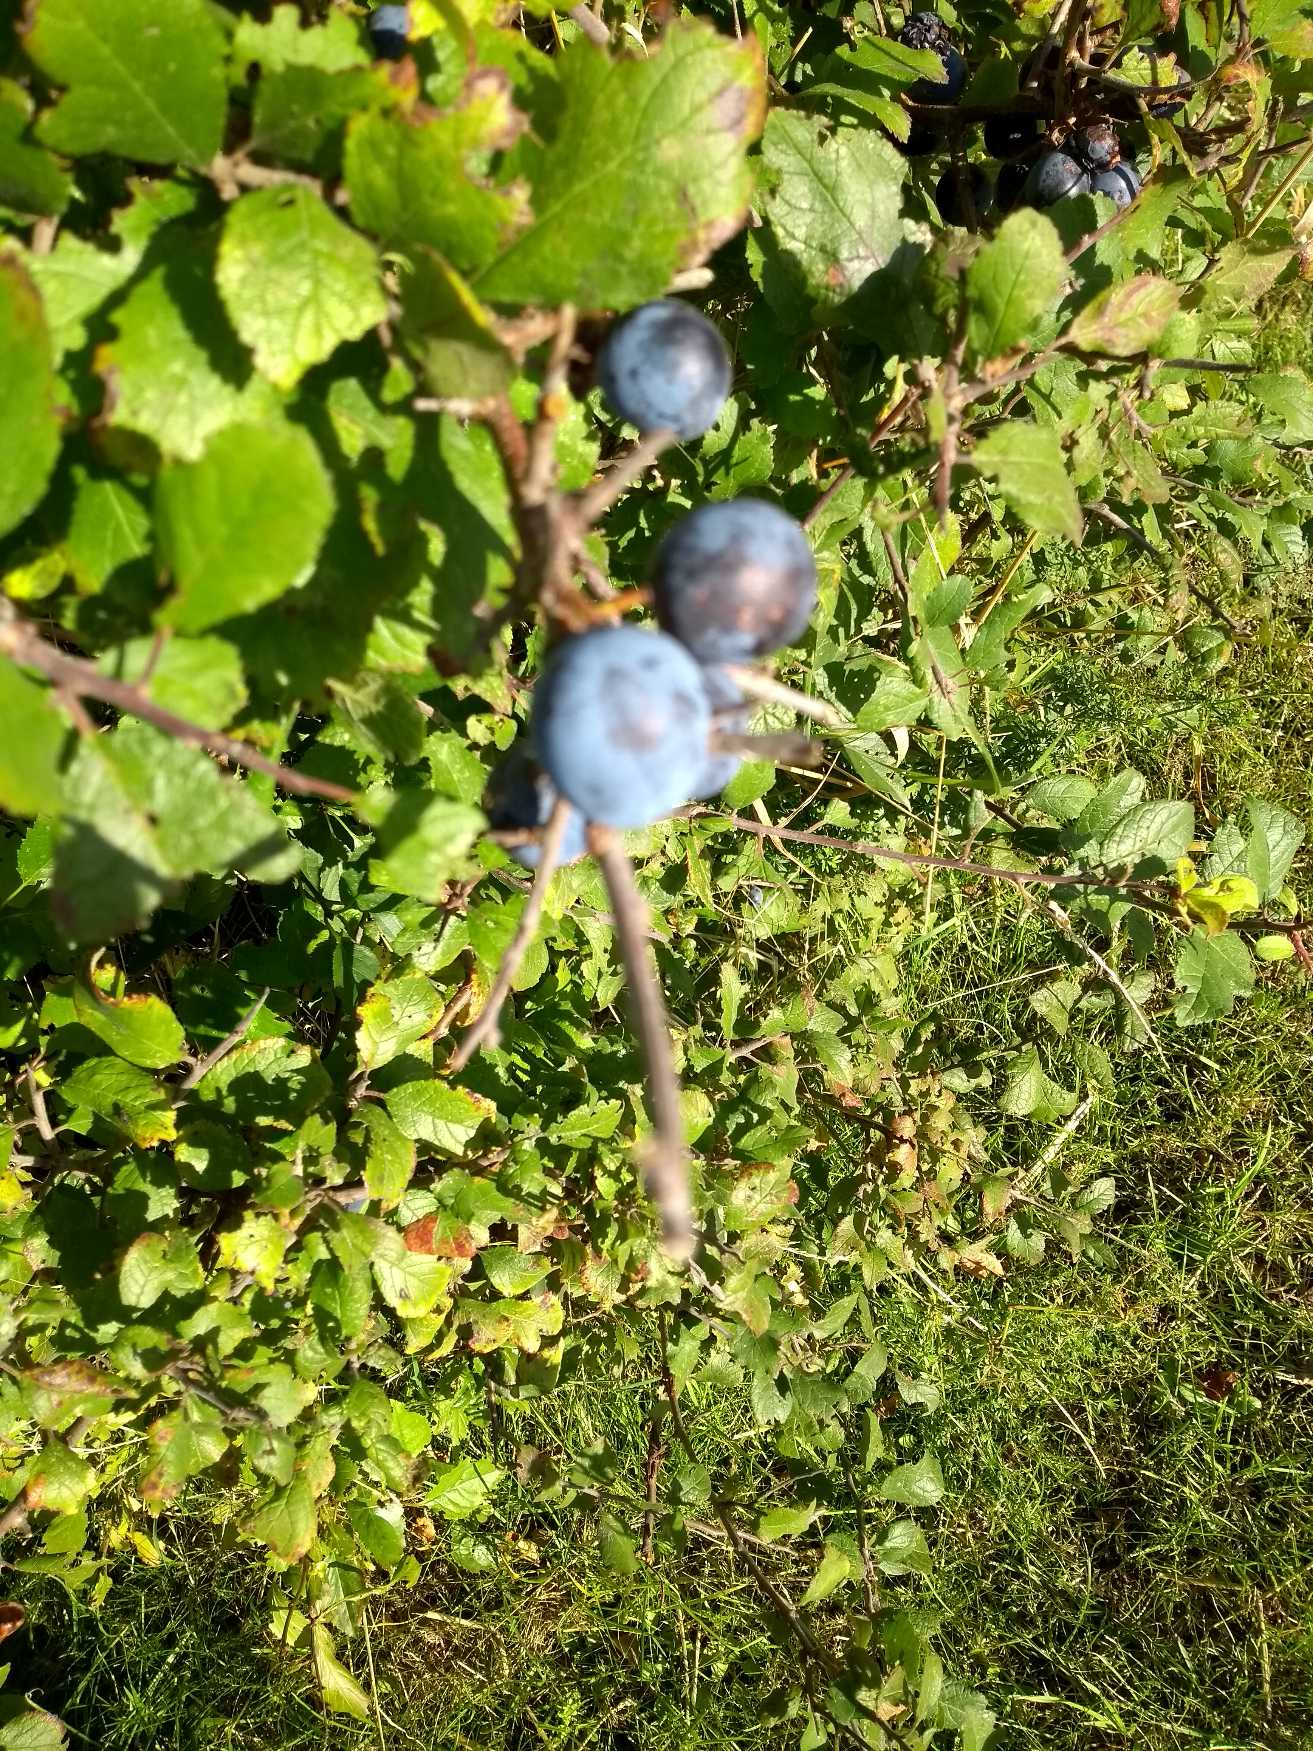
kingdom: Plantae
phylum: Tracheophyta
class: Magnoliopsida
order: Rosales
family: Rosaceae
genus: Prunus
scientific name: Prunus spinosa
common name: Slåen
